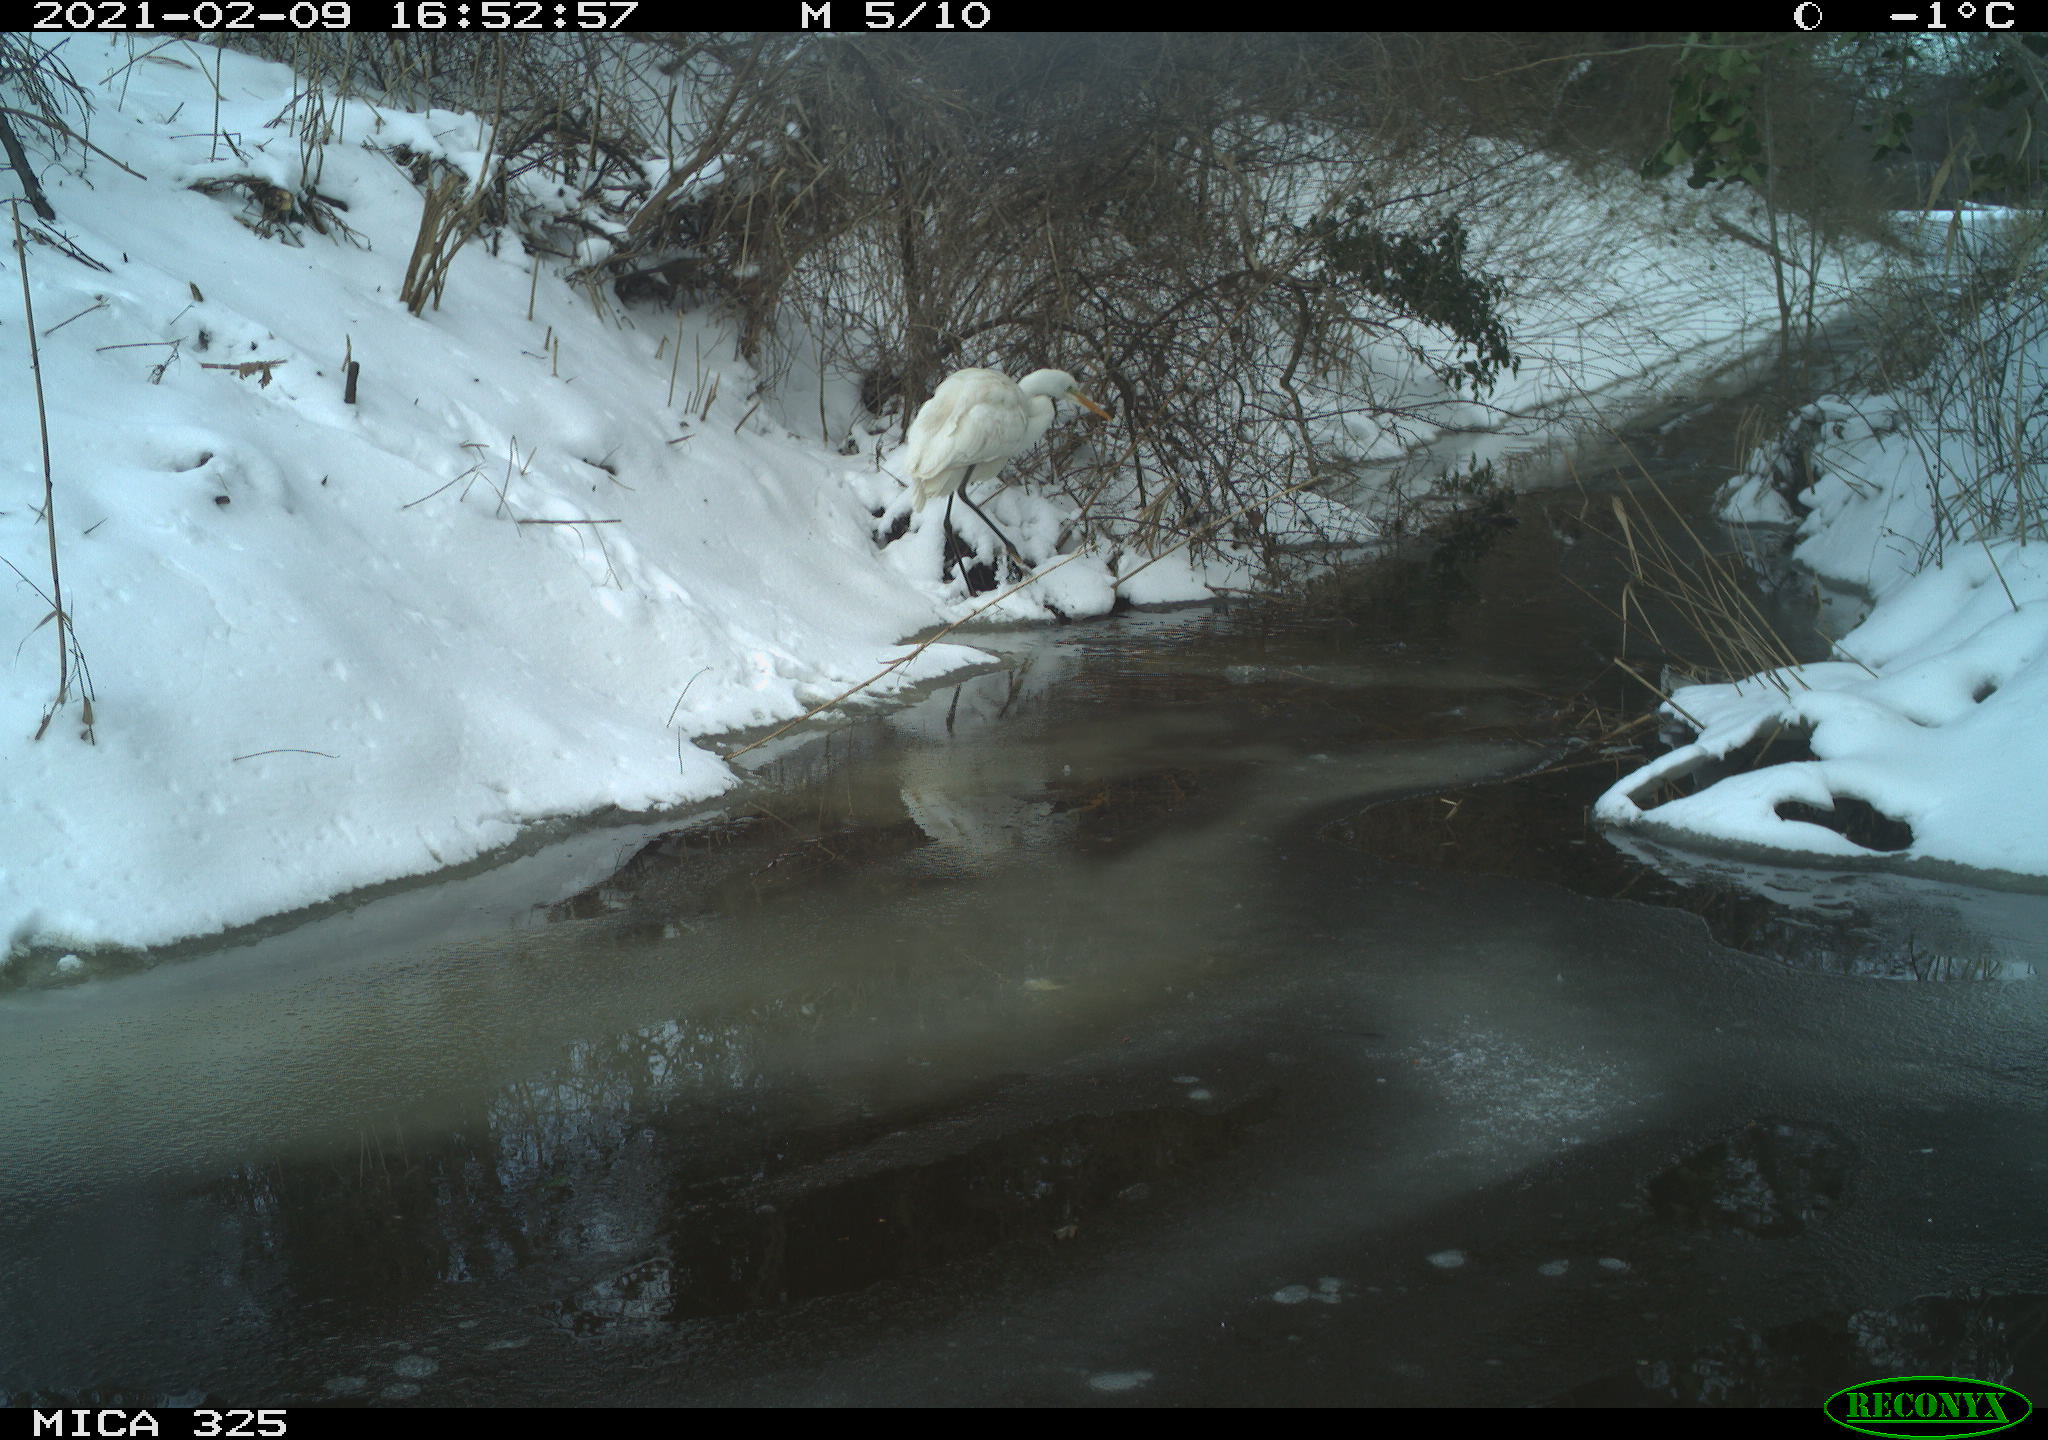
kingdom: Animalia
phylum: Chordata
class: Aves
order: Pelecaniformes
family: Ardeidae
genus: Ardea
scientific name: Ardea alba
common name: Great egret
